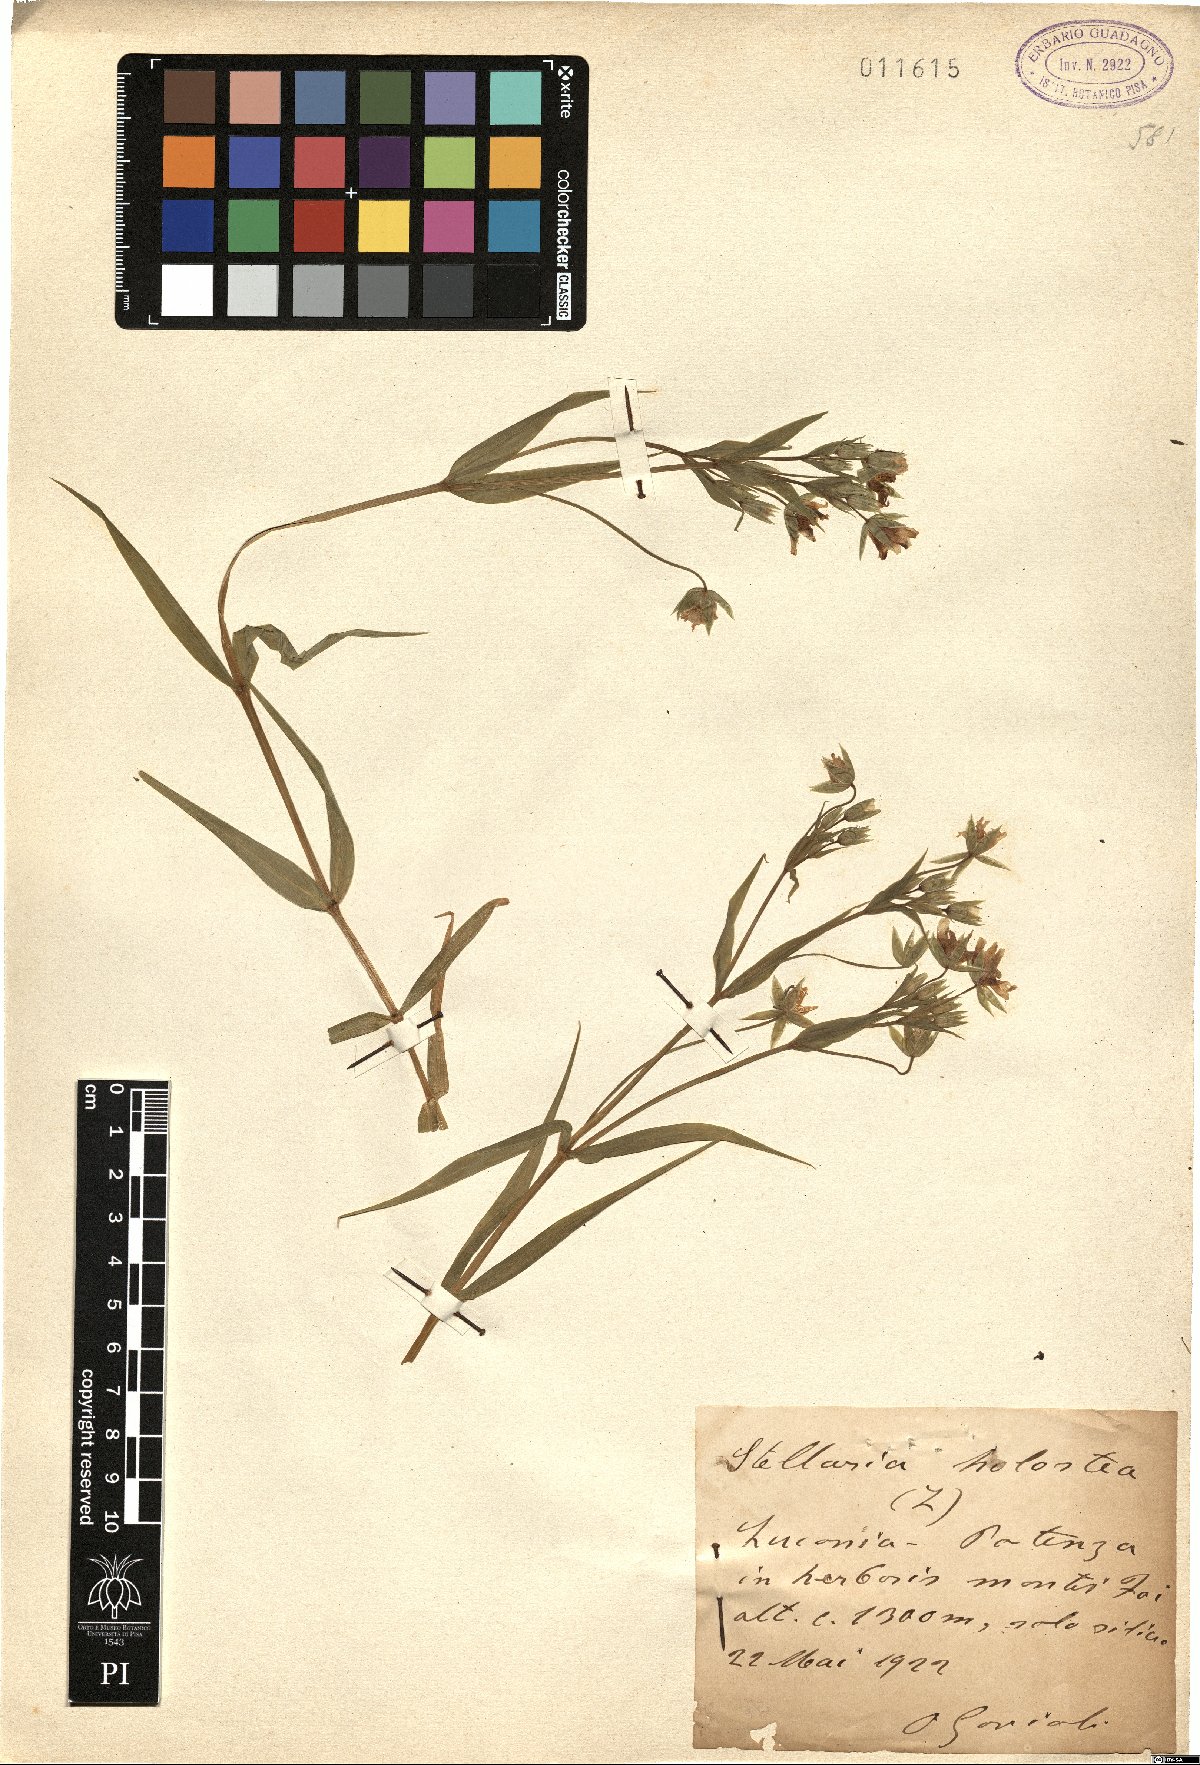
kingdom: Plantae
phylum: Tracheophyta
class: Magnoliopsida
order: Caryophyllales
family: Caryophyllaceae
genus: Rabelera
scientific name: Rabelera holostea
